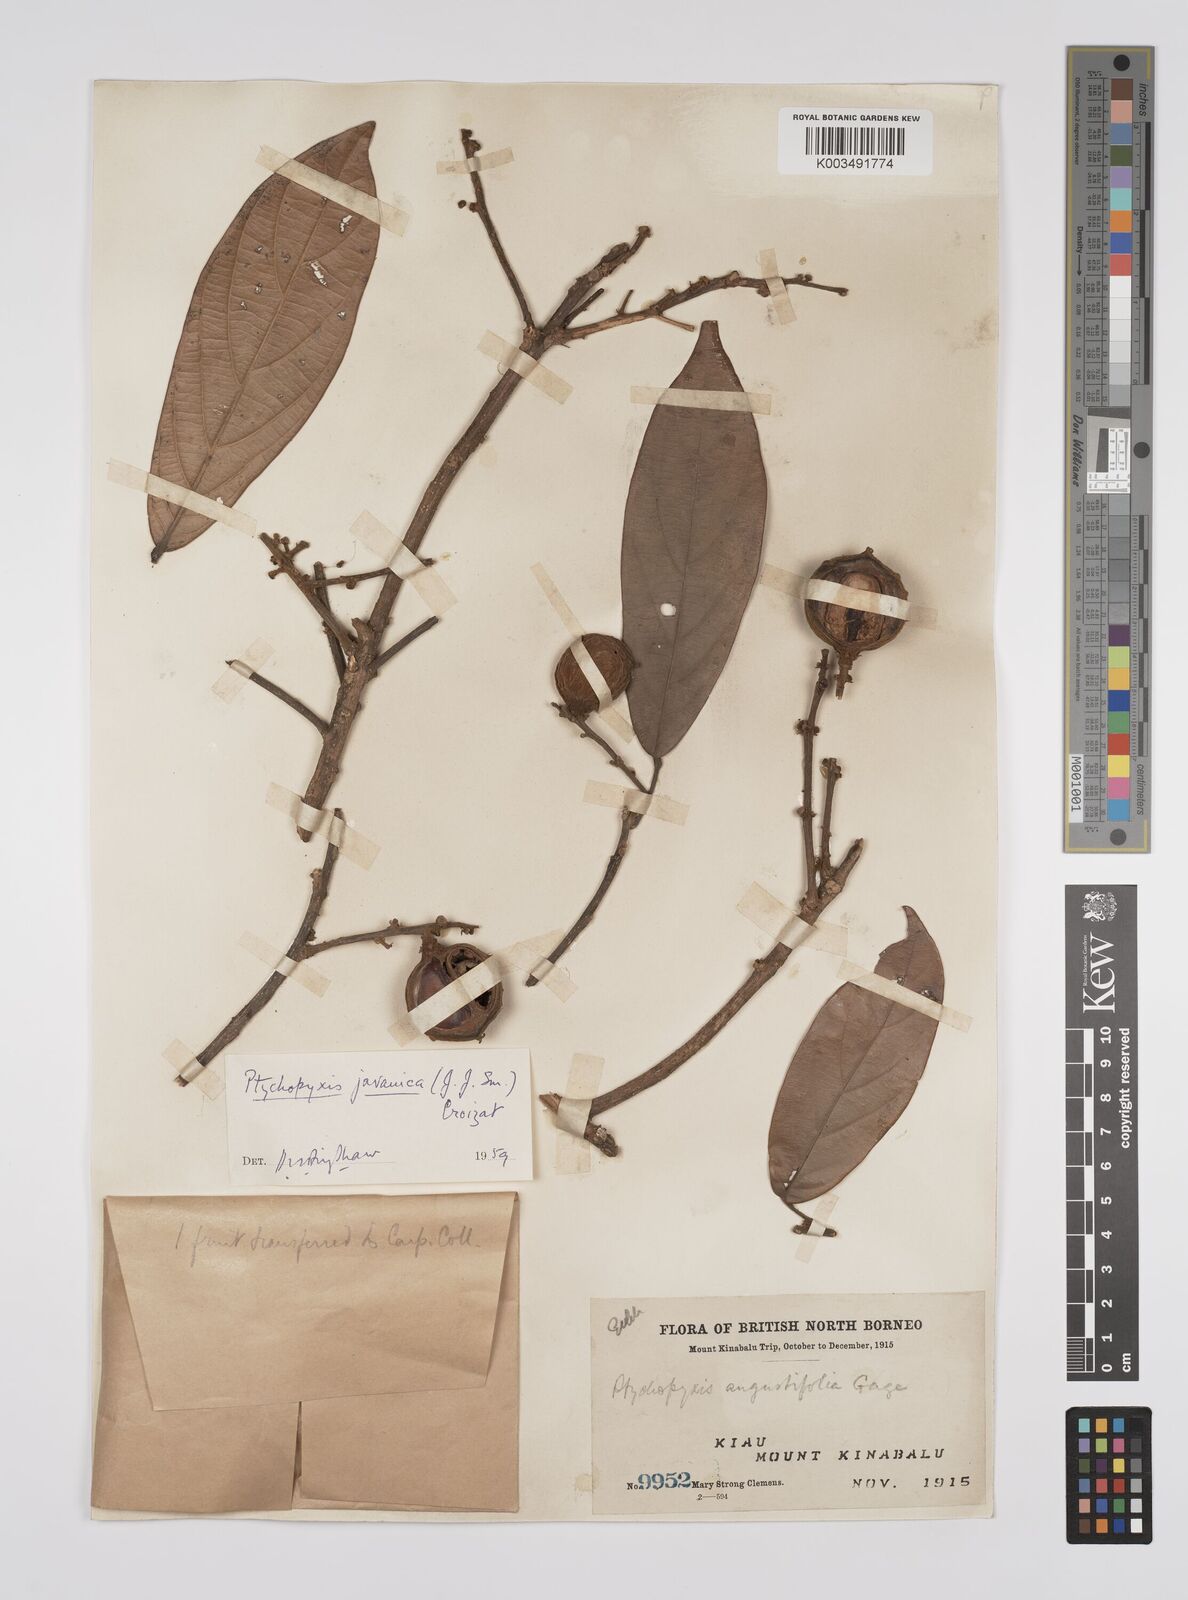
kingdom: Plantae
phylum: Tracheophyta
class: Magnoliopsida
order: Malpighiales
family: Euphorbiaceae
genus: Ptychopyxis
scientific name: Ptychopyxis javanica
